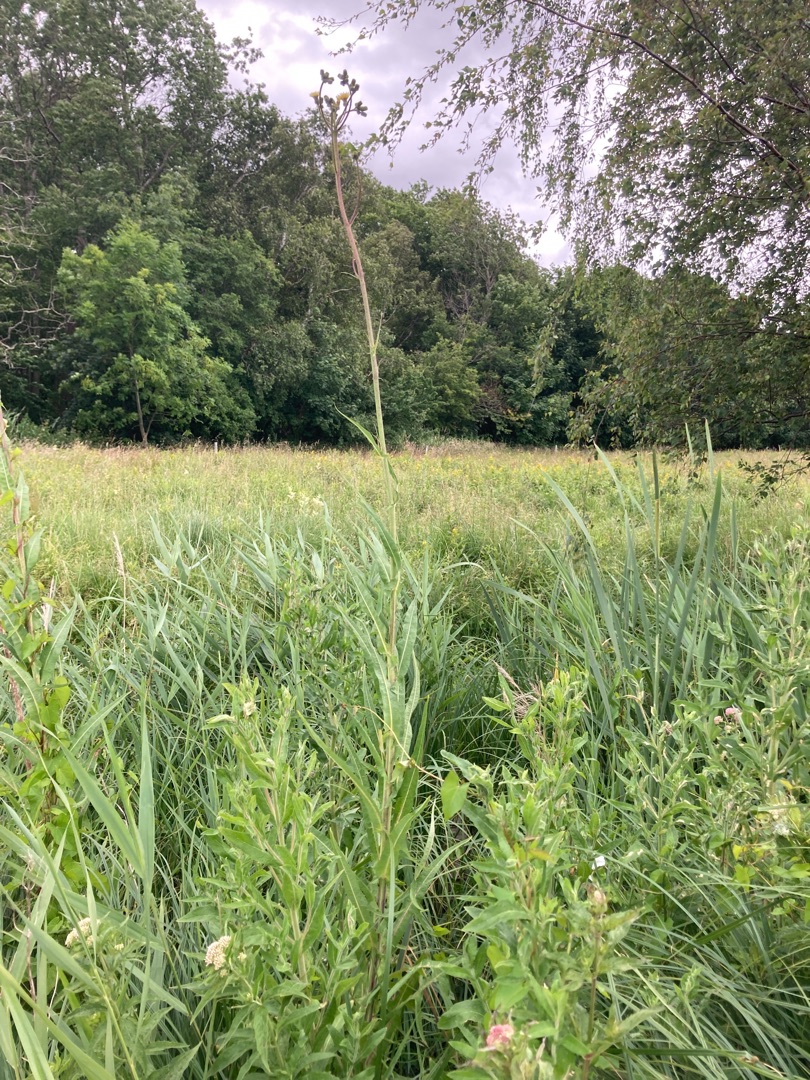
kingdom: Plantae
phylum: Tracheophyta
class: Magnoliopsida
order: Asterales
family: Asteraceae
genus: Sonchus
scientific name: Sonchus palustris
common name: Kær-svinemælk
